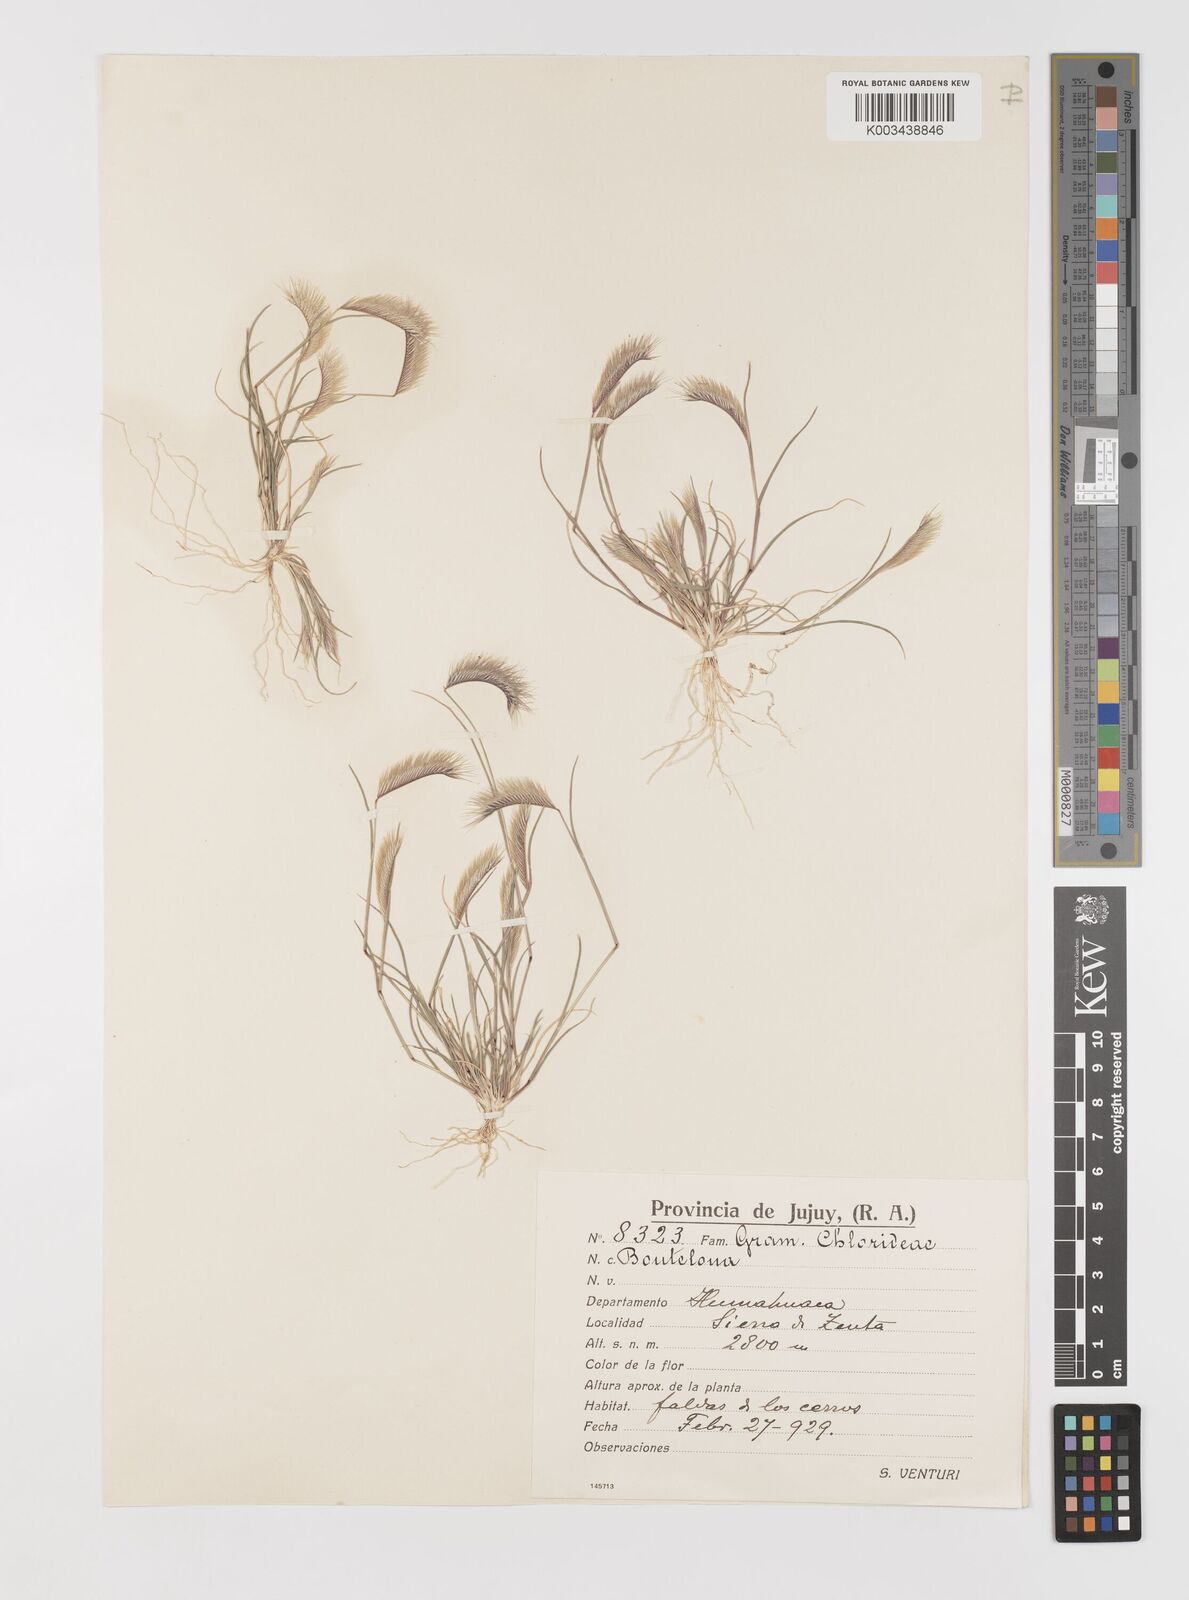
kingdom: Plantae
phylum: Tracheophyta
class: Liliopsida
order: Poales
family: Poaceae
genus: Bouteloua
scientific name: Bouteloua simplex
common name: Mat grama
